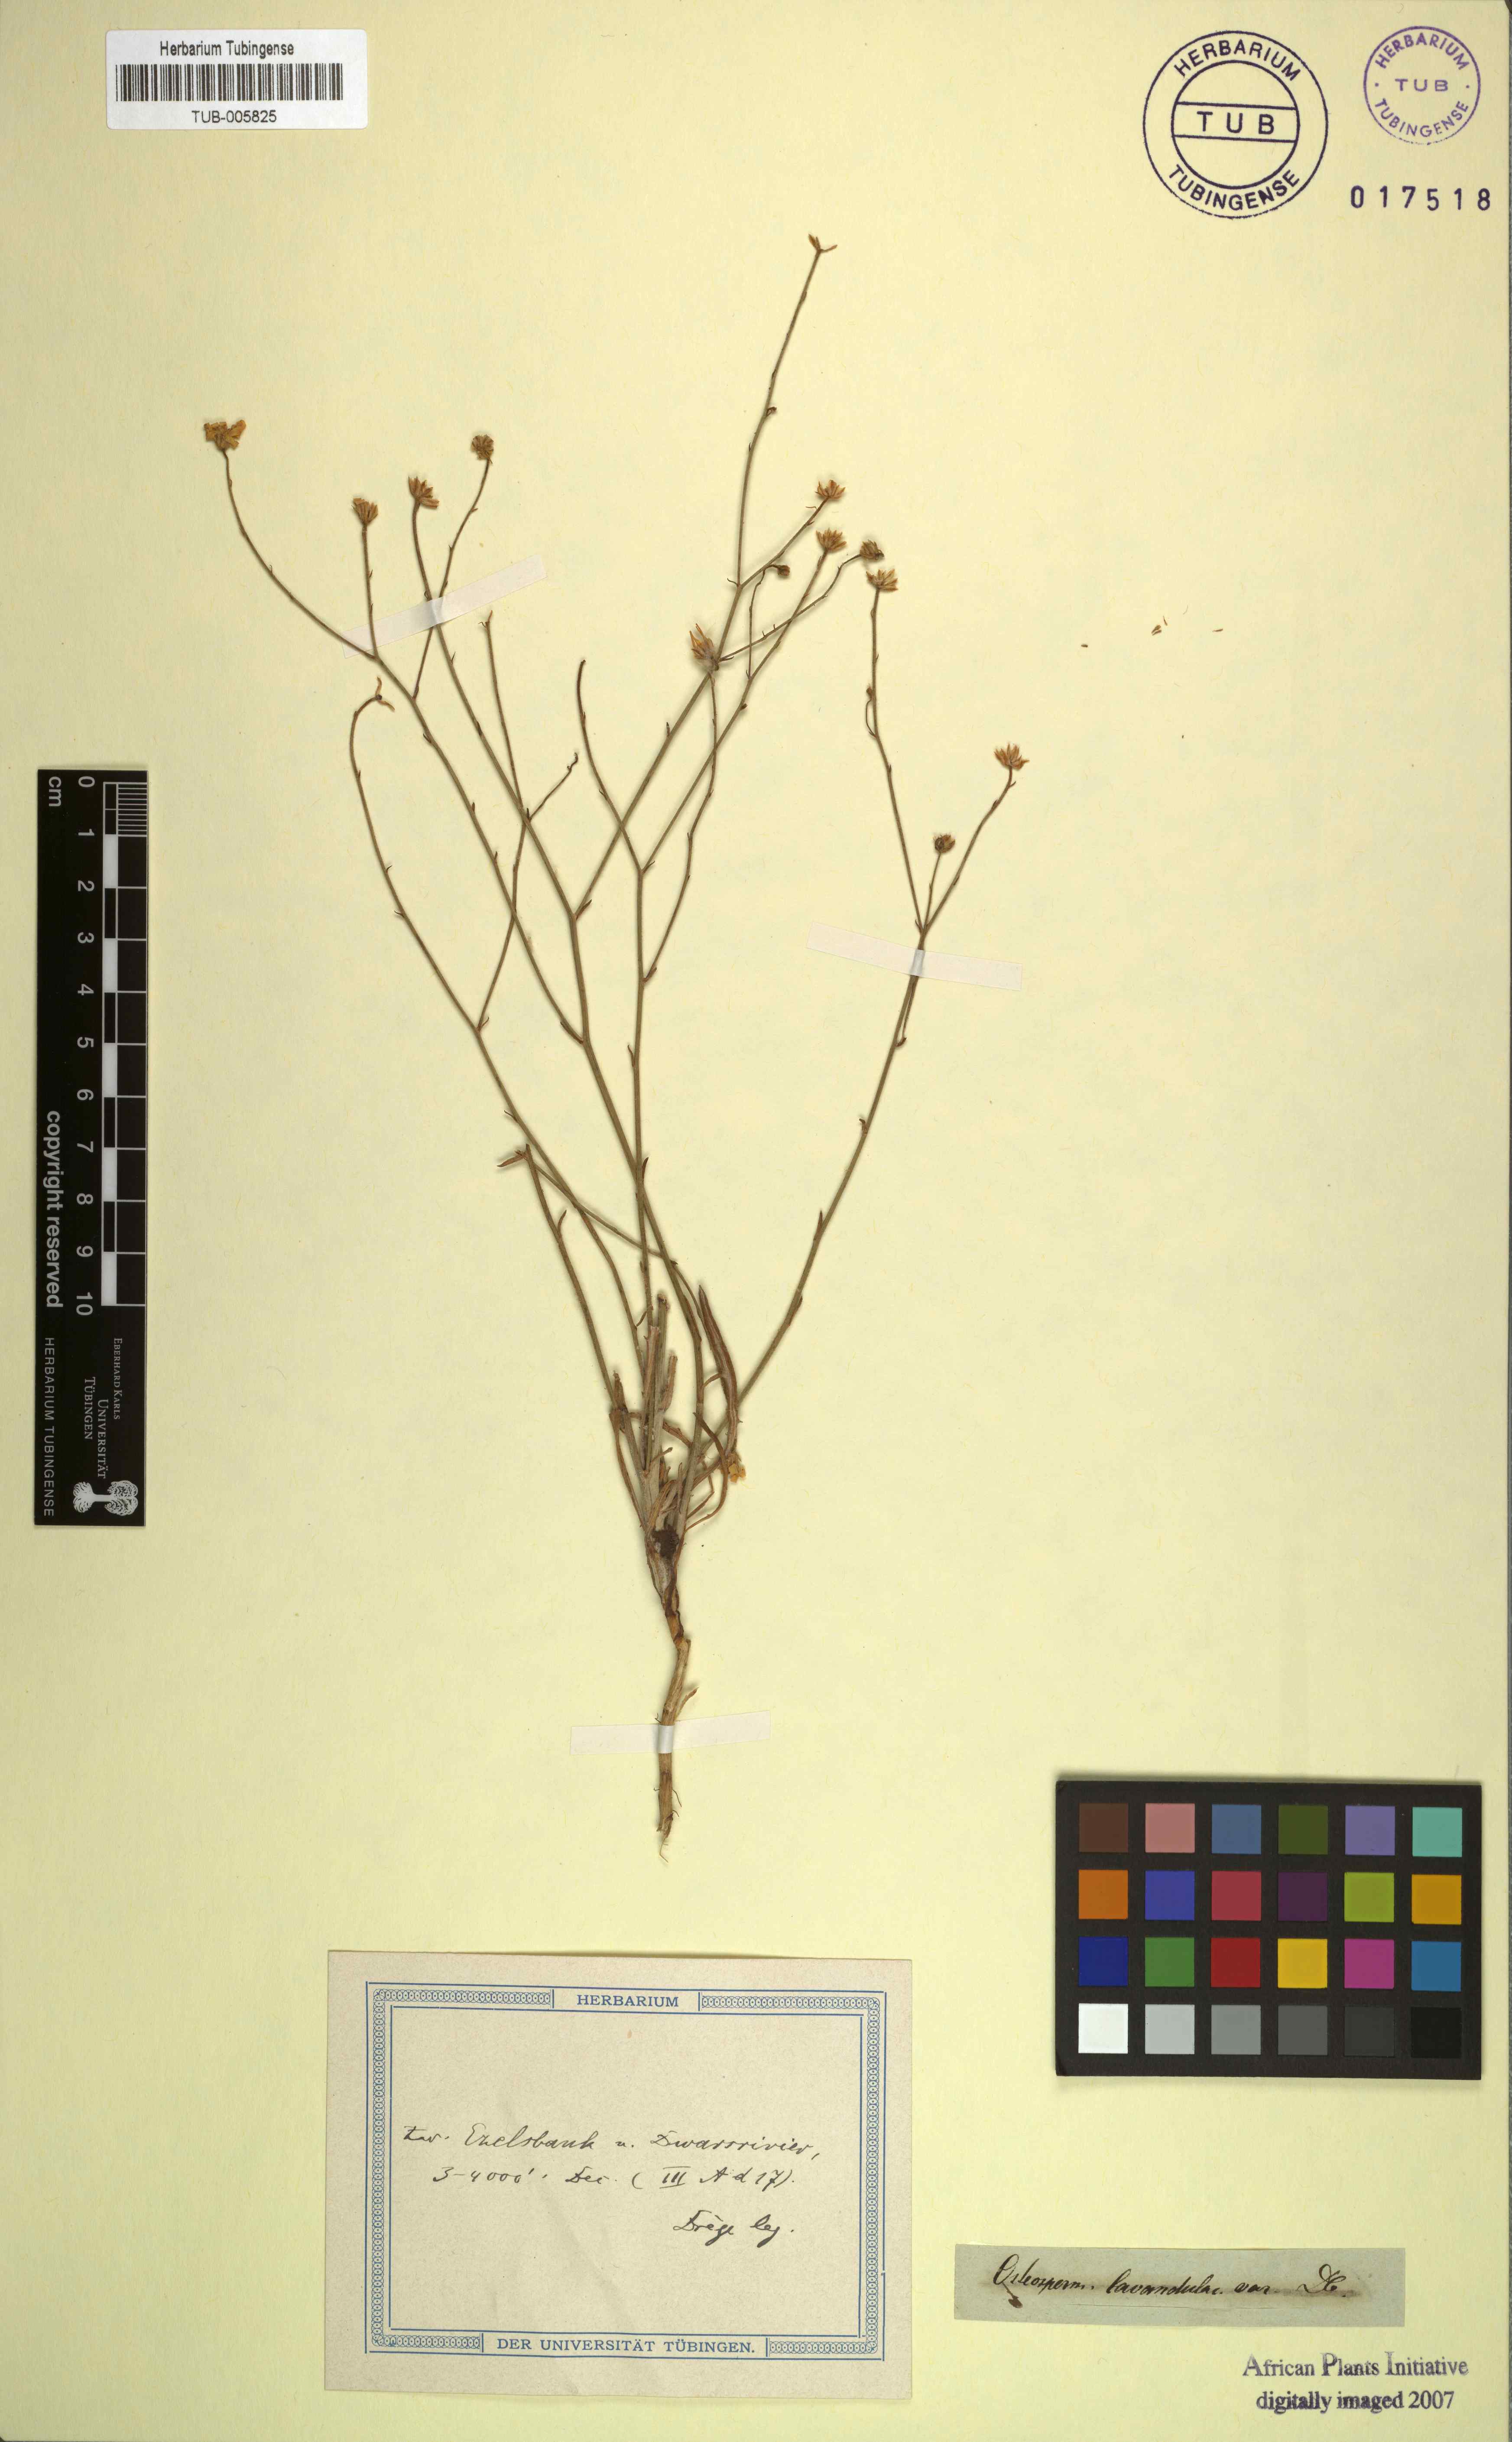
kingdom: Plantae
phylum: Tracheophyta
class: Magnoliopsida
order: Asterales
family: Asteraceae
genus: Osteospermum
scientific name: Osteospermum bidens
